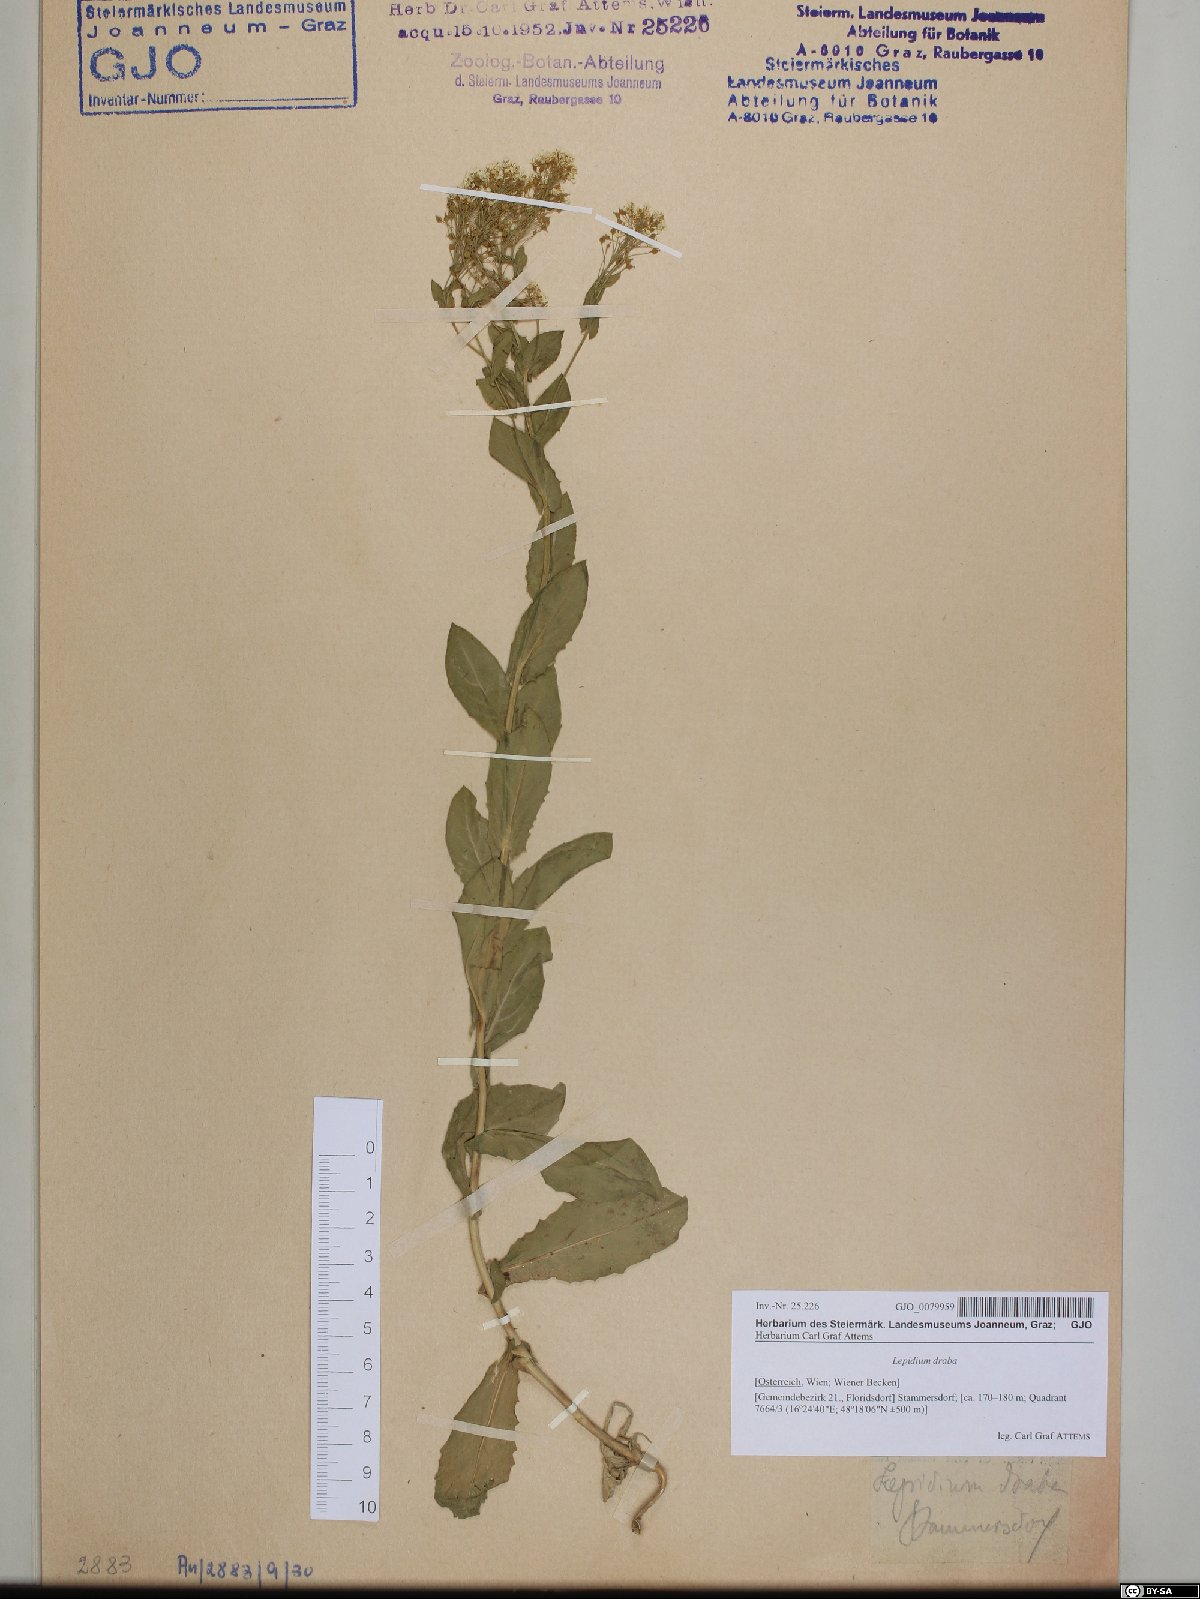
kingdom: Plantae
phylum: Tracheophyta
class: Magnoliopsida
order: Brassicales
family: Brassicaceae
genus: Lepidium
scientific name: Lepidium draba
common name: Hoary cress
